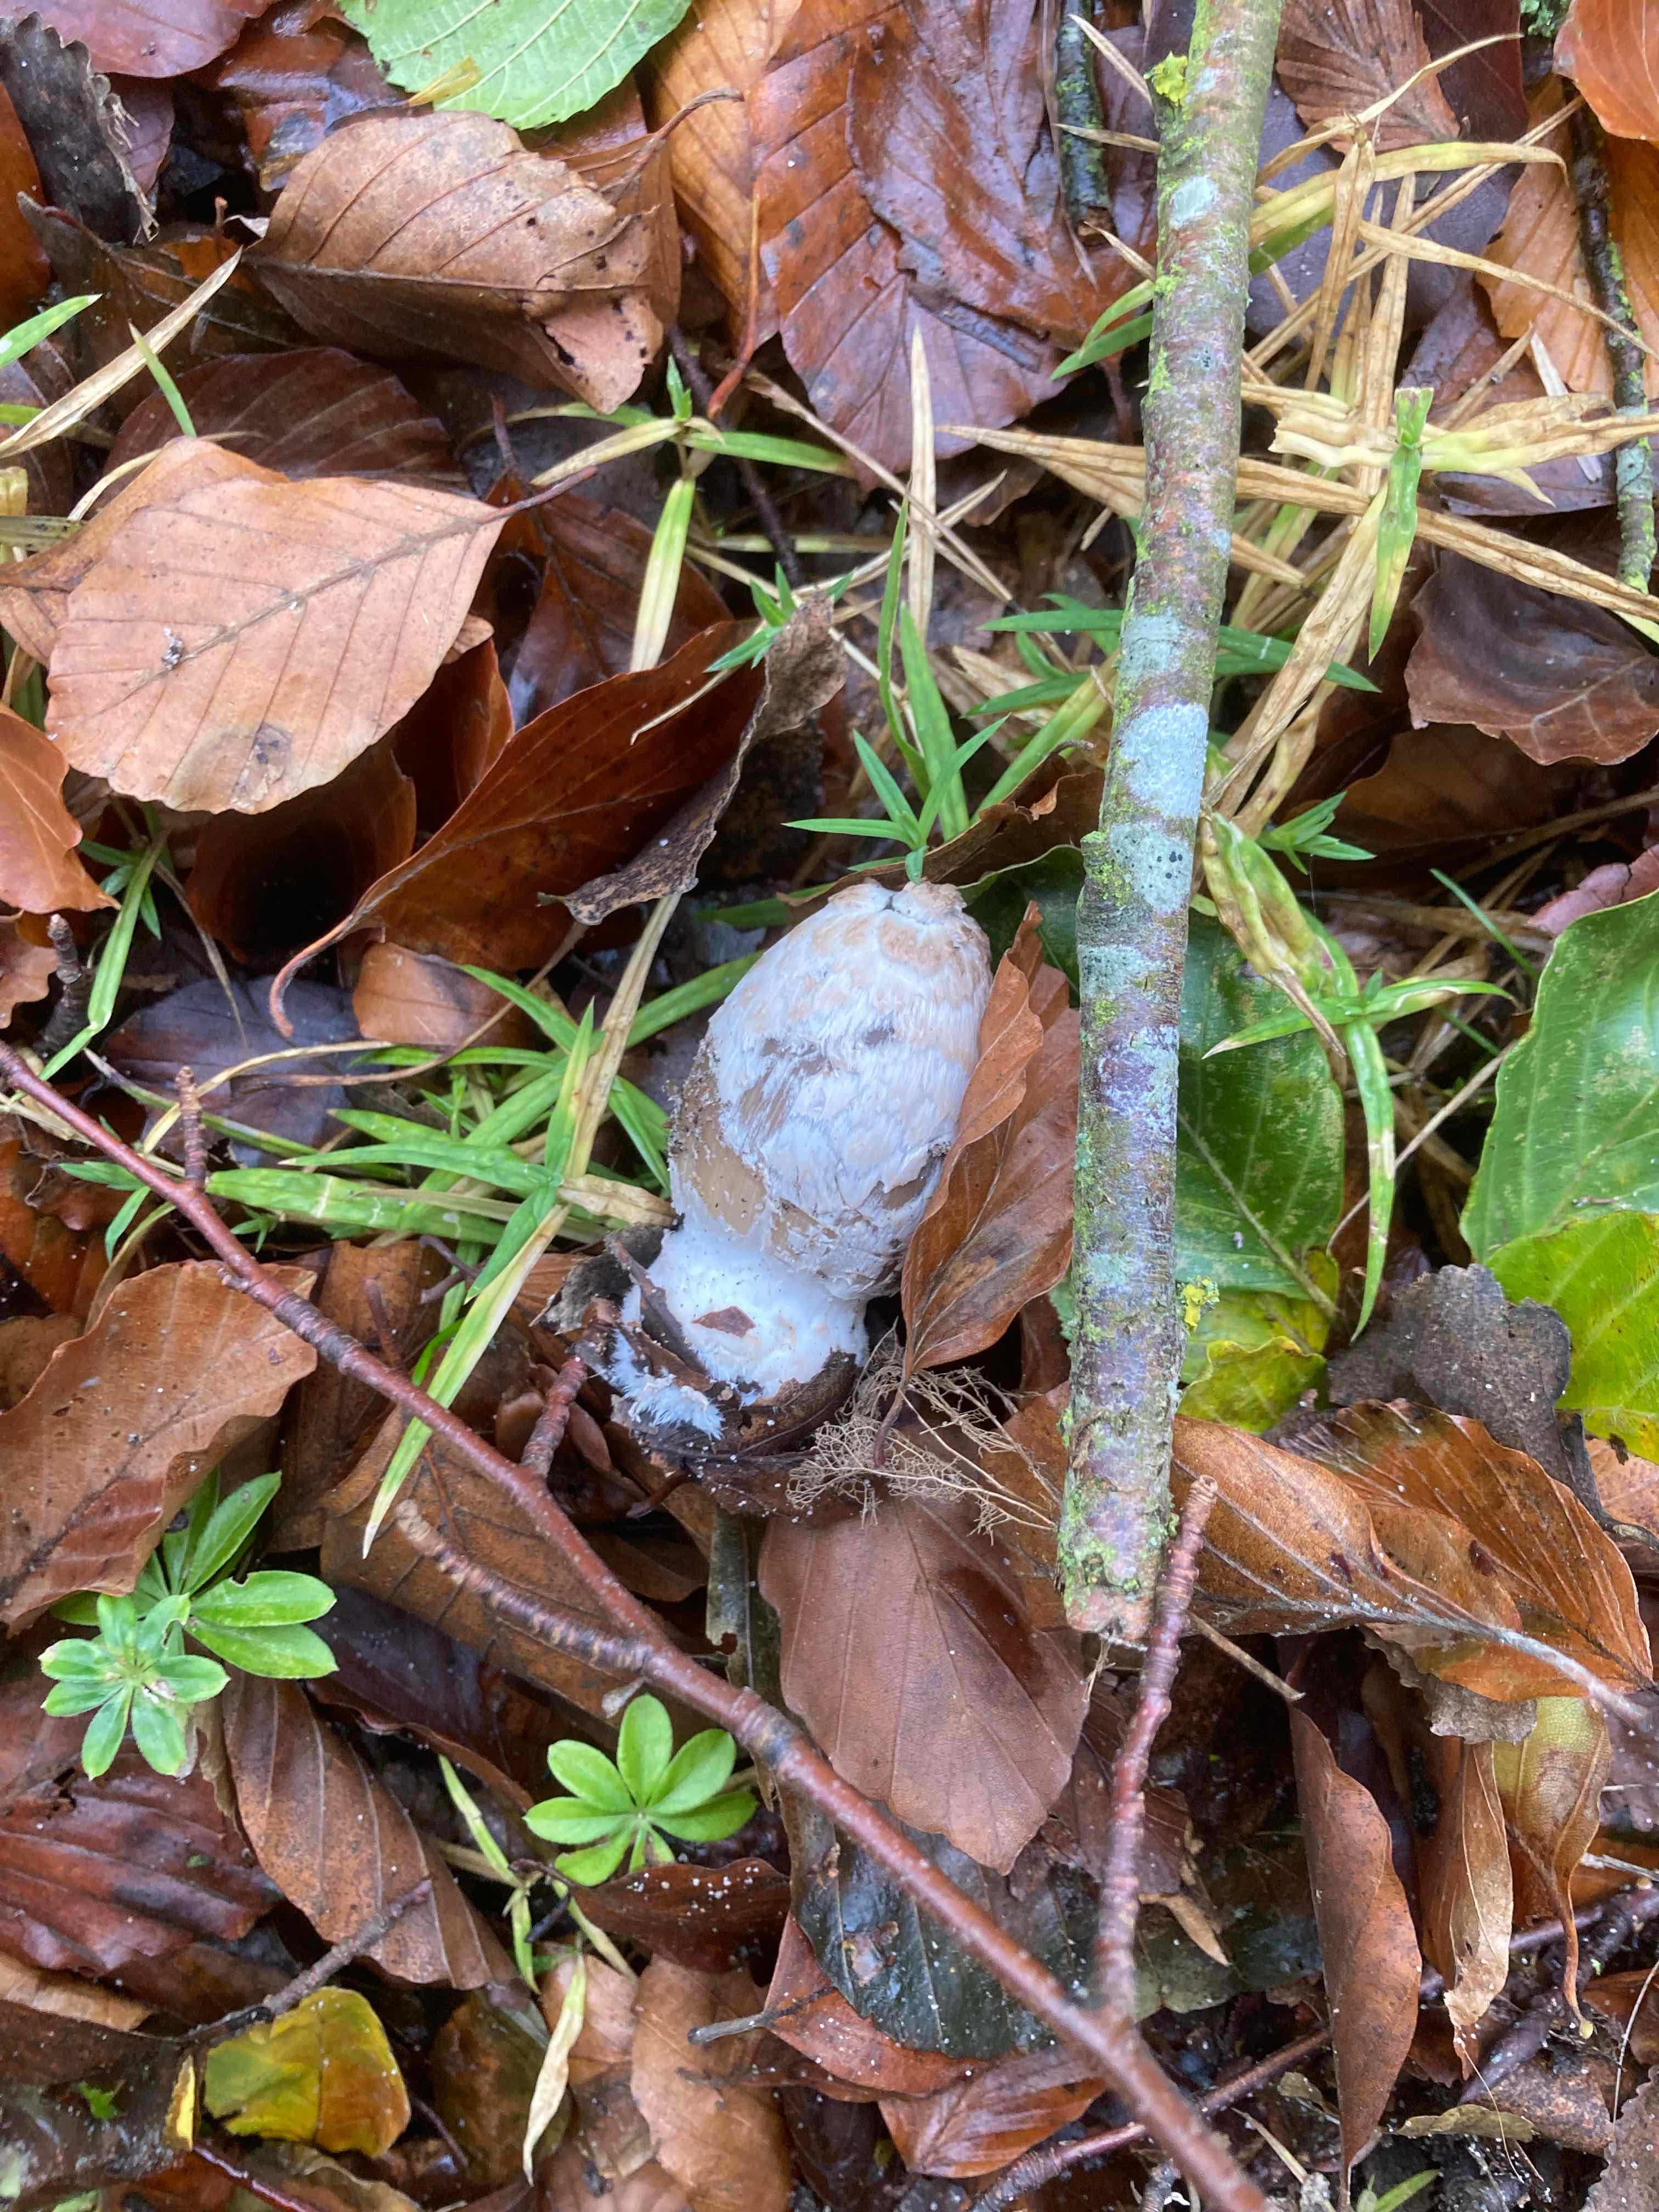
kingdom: Fungi
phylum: Basidiomycota
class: Agaricomycetes
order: Agaricales
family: Psathyrellaceae
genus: Coprinopsis
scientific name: Coprinopsis picacea
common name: skade-blækhat
